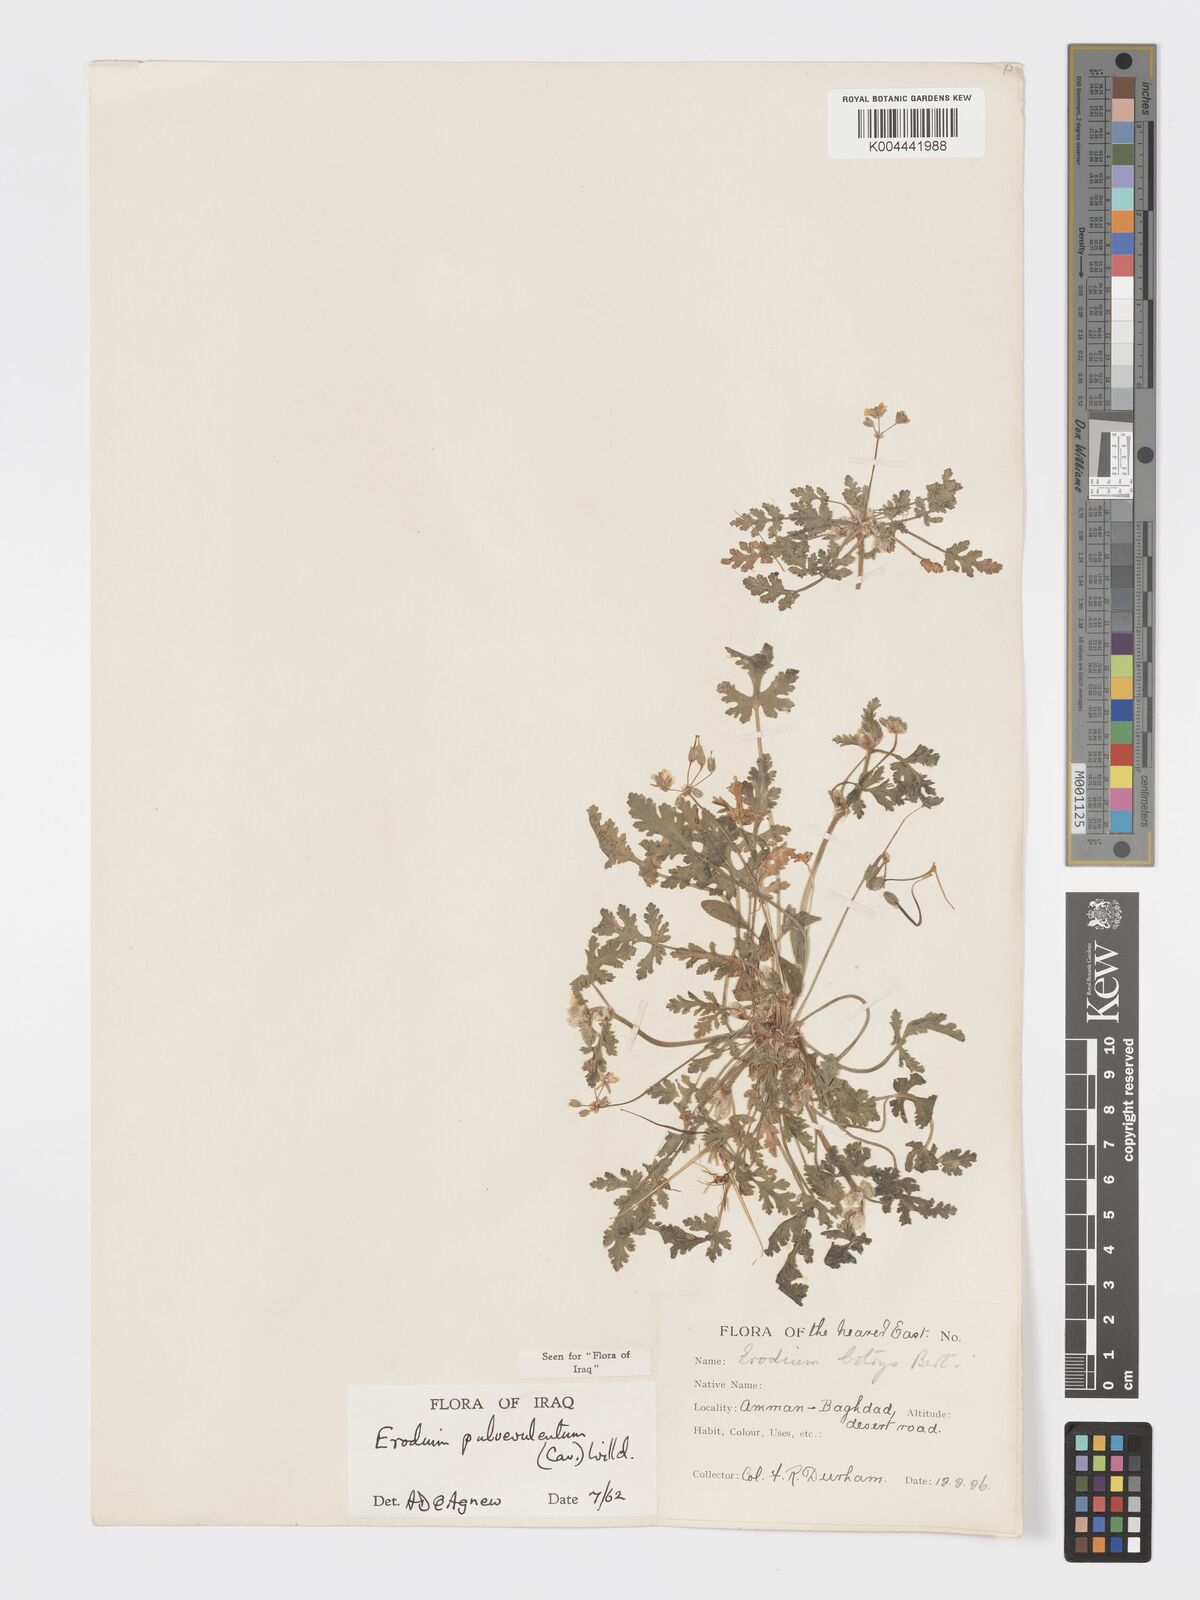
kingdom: Plantae
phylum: Tracheophyta
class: Magnoliopsida
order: Geraniales
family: Geraniaceae
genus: Erodium
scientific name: Erodium laciniatum
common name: Cutleaf stork's bill
